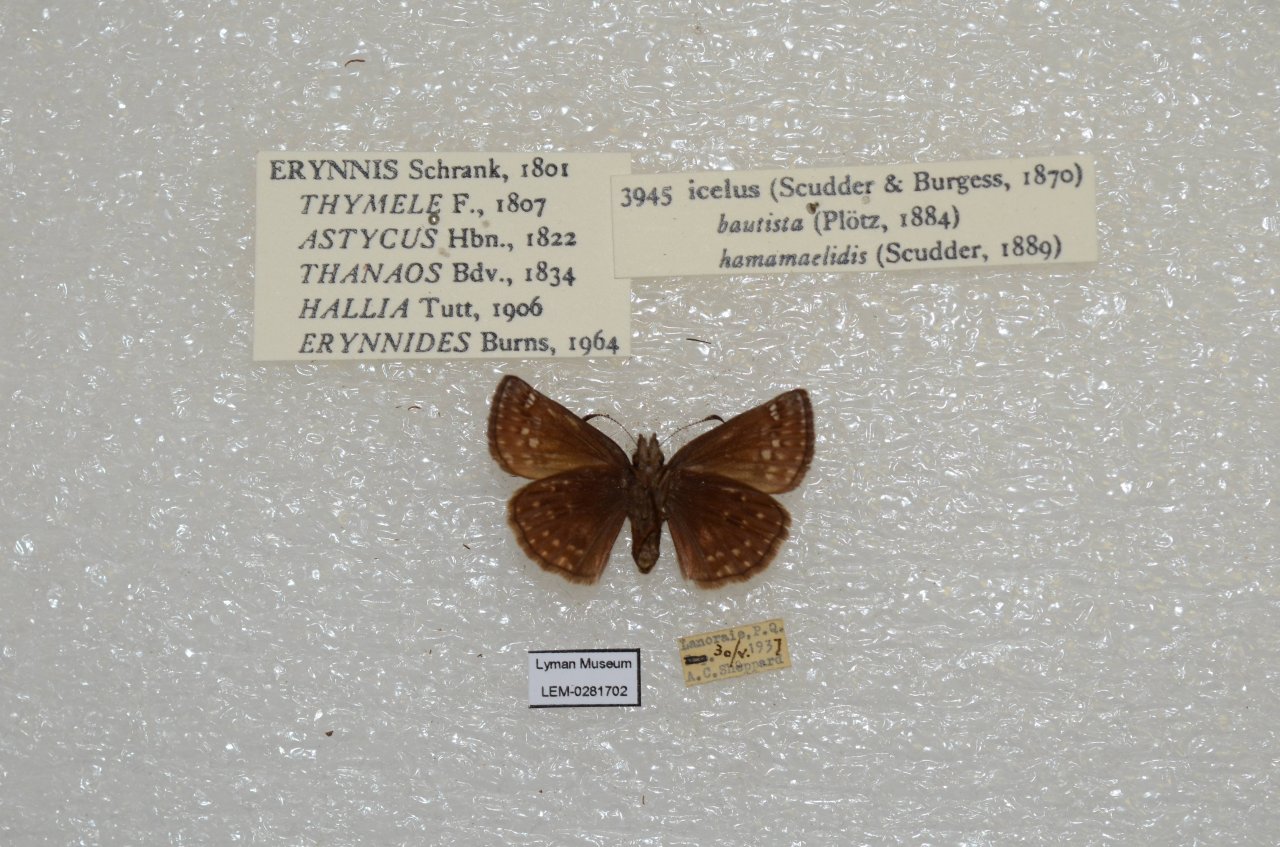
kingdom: Animalia
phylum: Arthropoda
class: Insecta
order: Lepidoptera
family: Hesperiidae
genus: Erynnis
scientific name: Erynnis icelus
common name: Dreamy Duskywing
